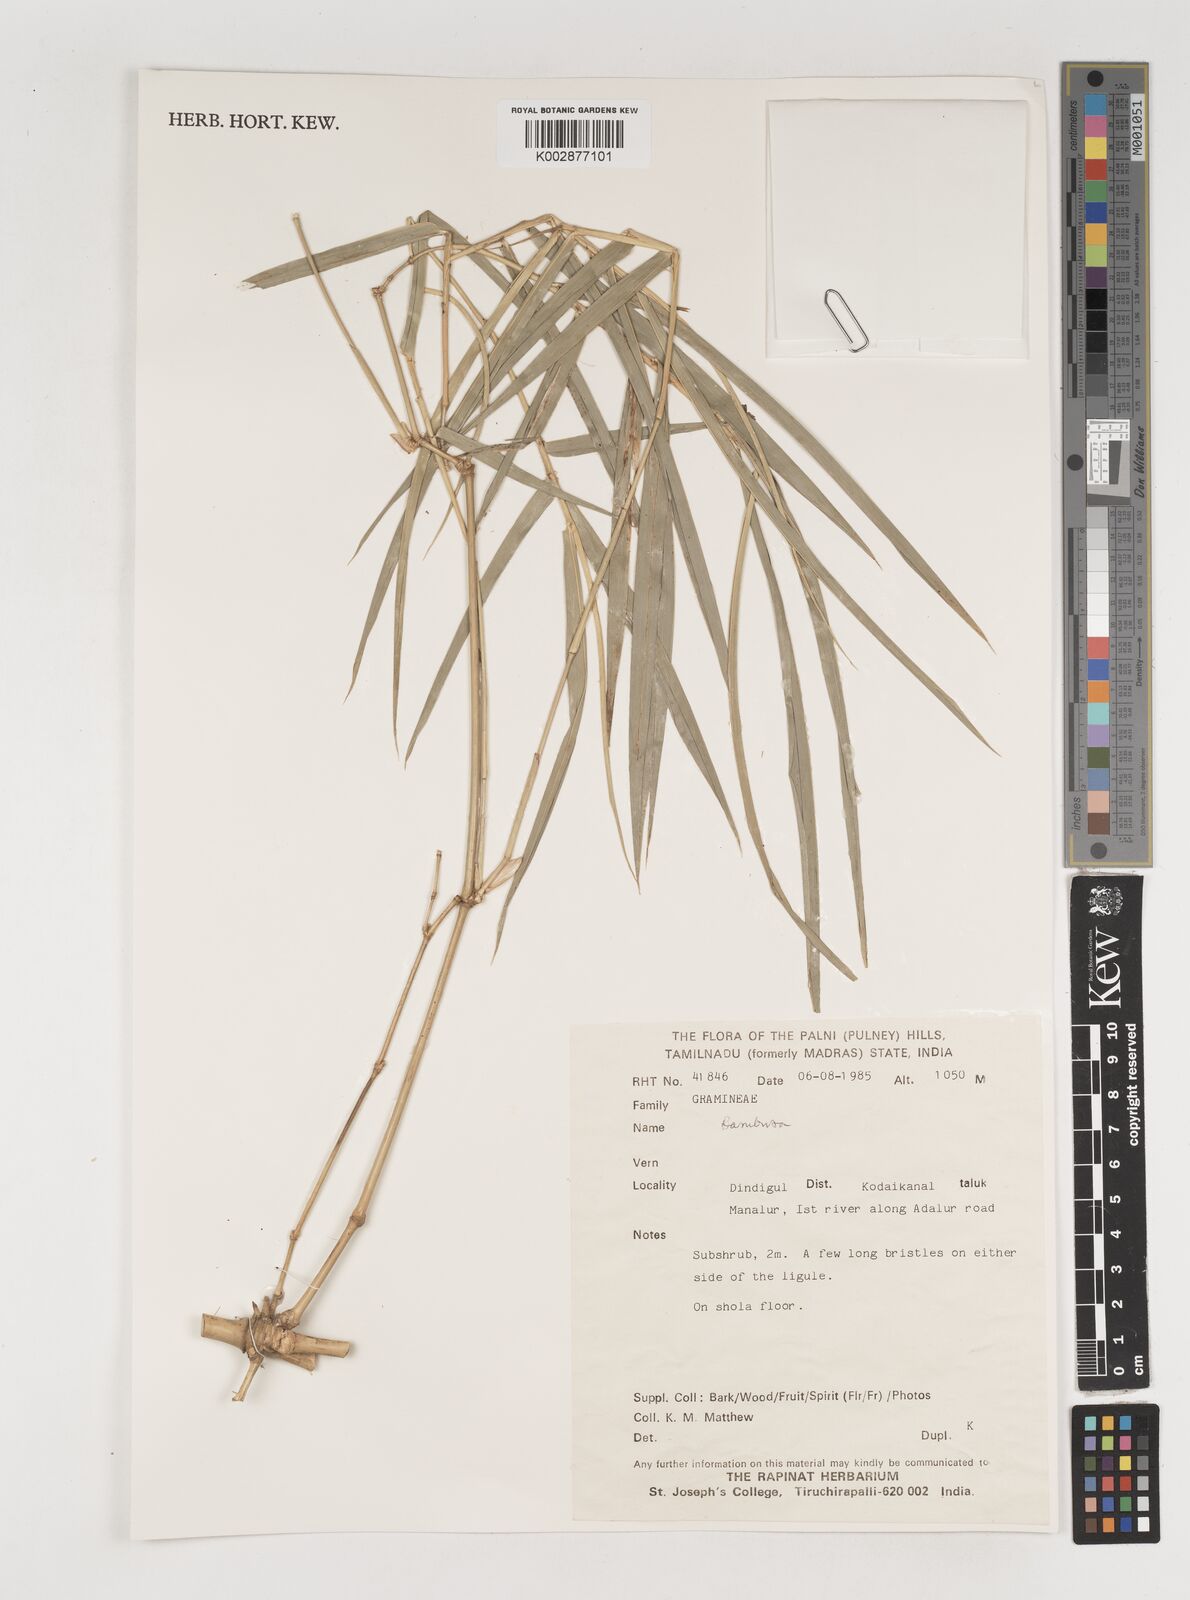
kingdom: Plantae
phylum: Tracheophyta
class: Liliopsida
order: Poales
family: Poaceae
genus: Bambusa
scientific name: Bambusa
